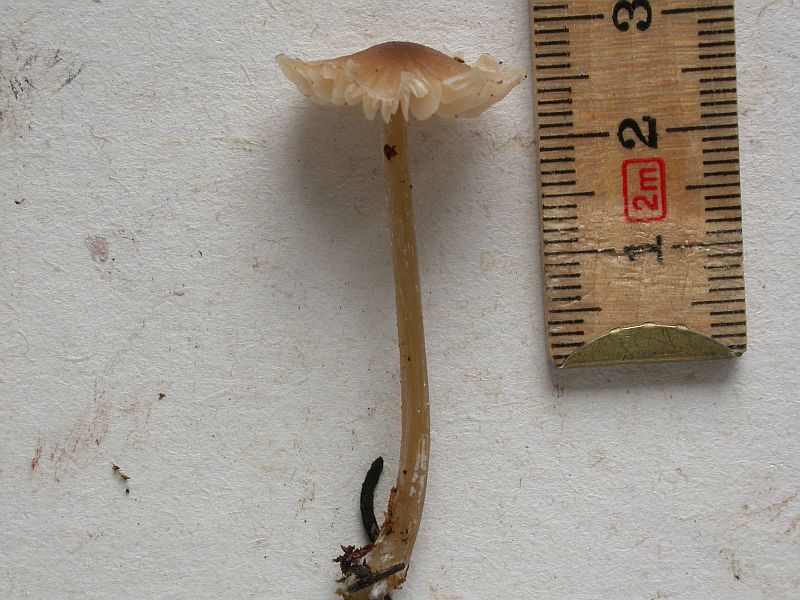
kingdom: Fungi
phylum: Basidiomycota
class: Agaricomycetes
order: Agaricales
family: Entolomataceae
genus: Entoloma
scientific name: Entoloma cetratum
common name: voks-rødblad
